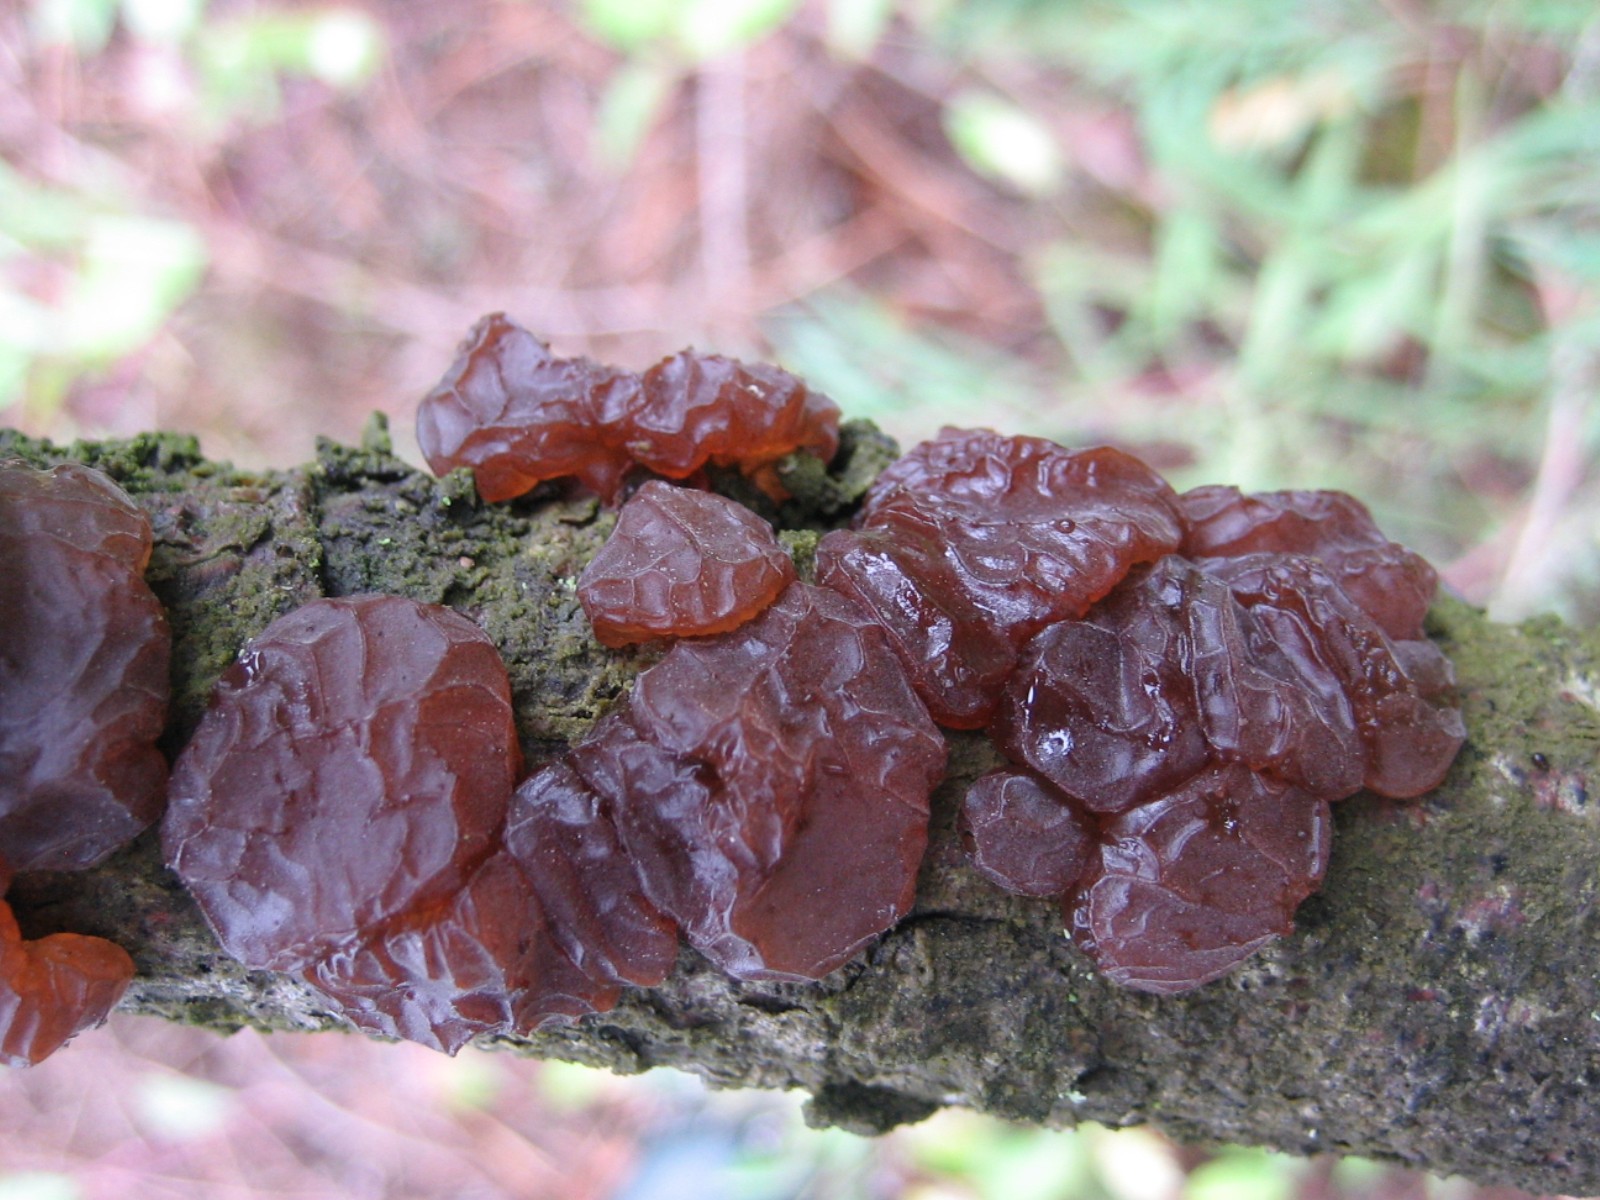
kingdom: Fungi
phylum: Basidiomycota
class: Agaricomycetes
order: Auriculariales
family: Auriculariaceae
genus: Exidia
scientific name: Exidia saccharina
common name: kandis-bævretop
